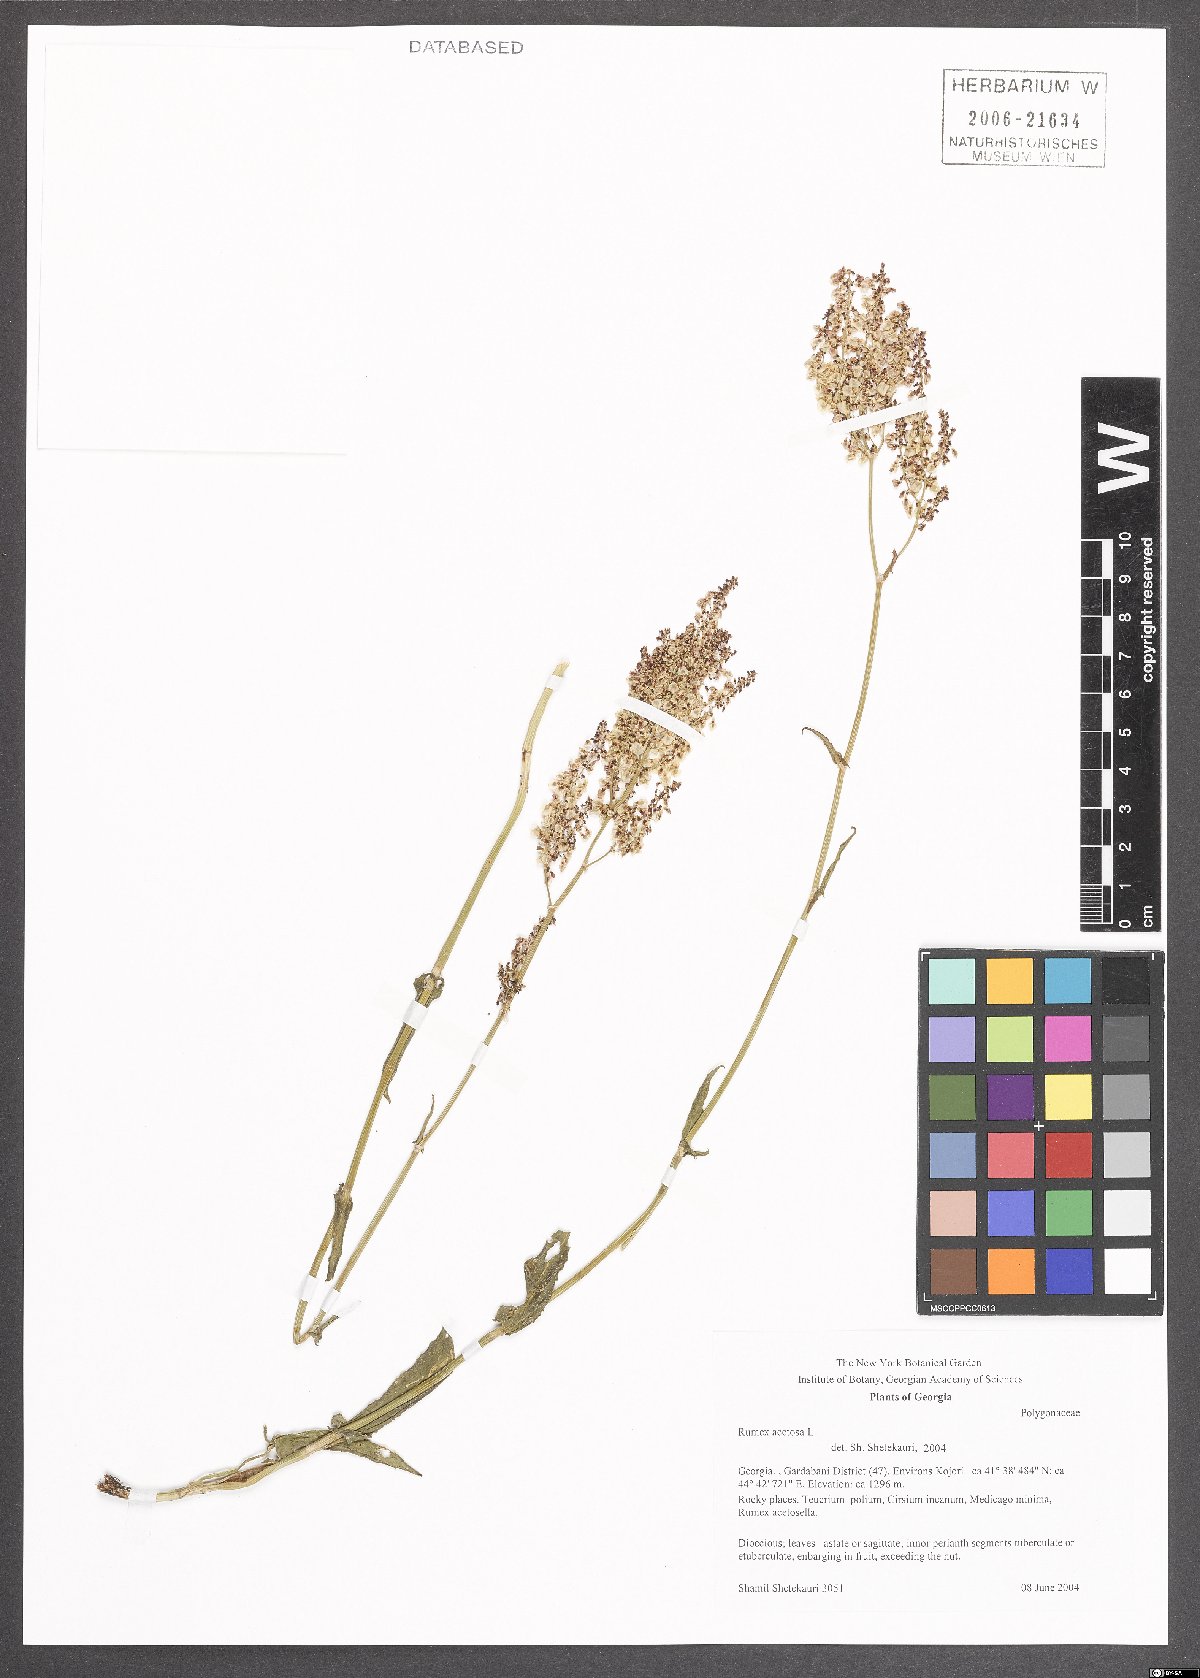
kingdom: Plantae
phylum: Tracheophyta
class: Magnoliopsida
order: Caryophyllales
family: Polygonaceae
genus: Rumex
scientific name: Rumex acetosa
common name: Garden sorrel
